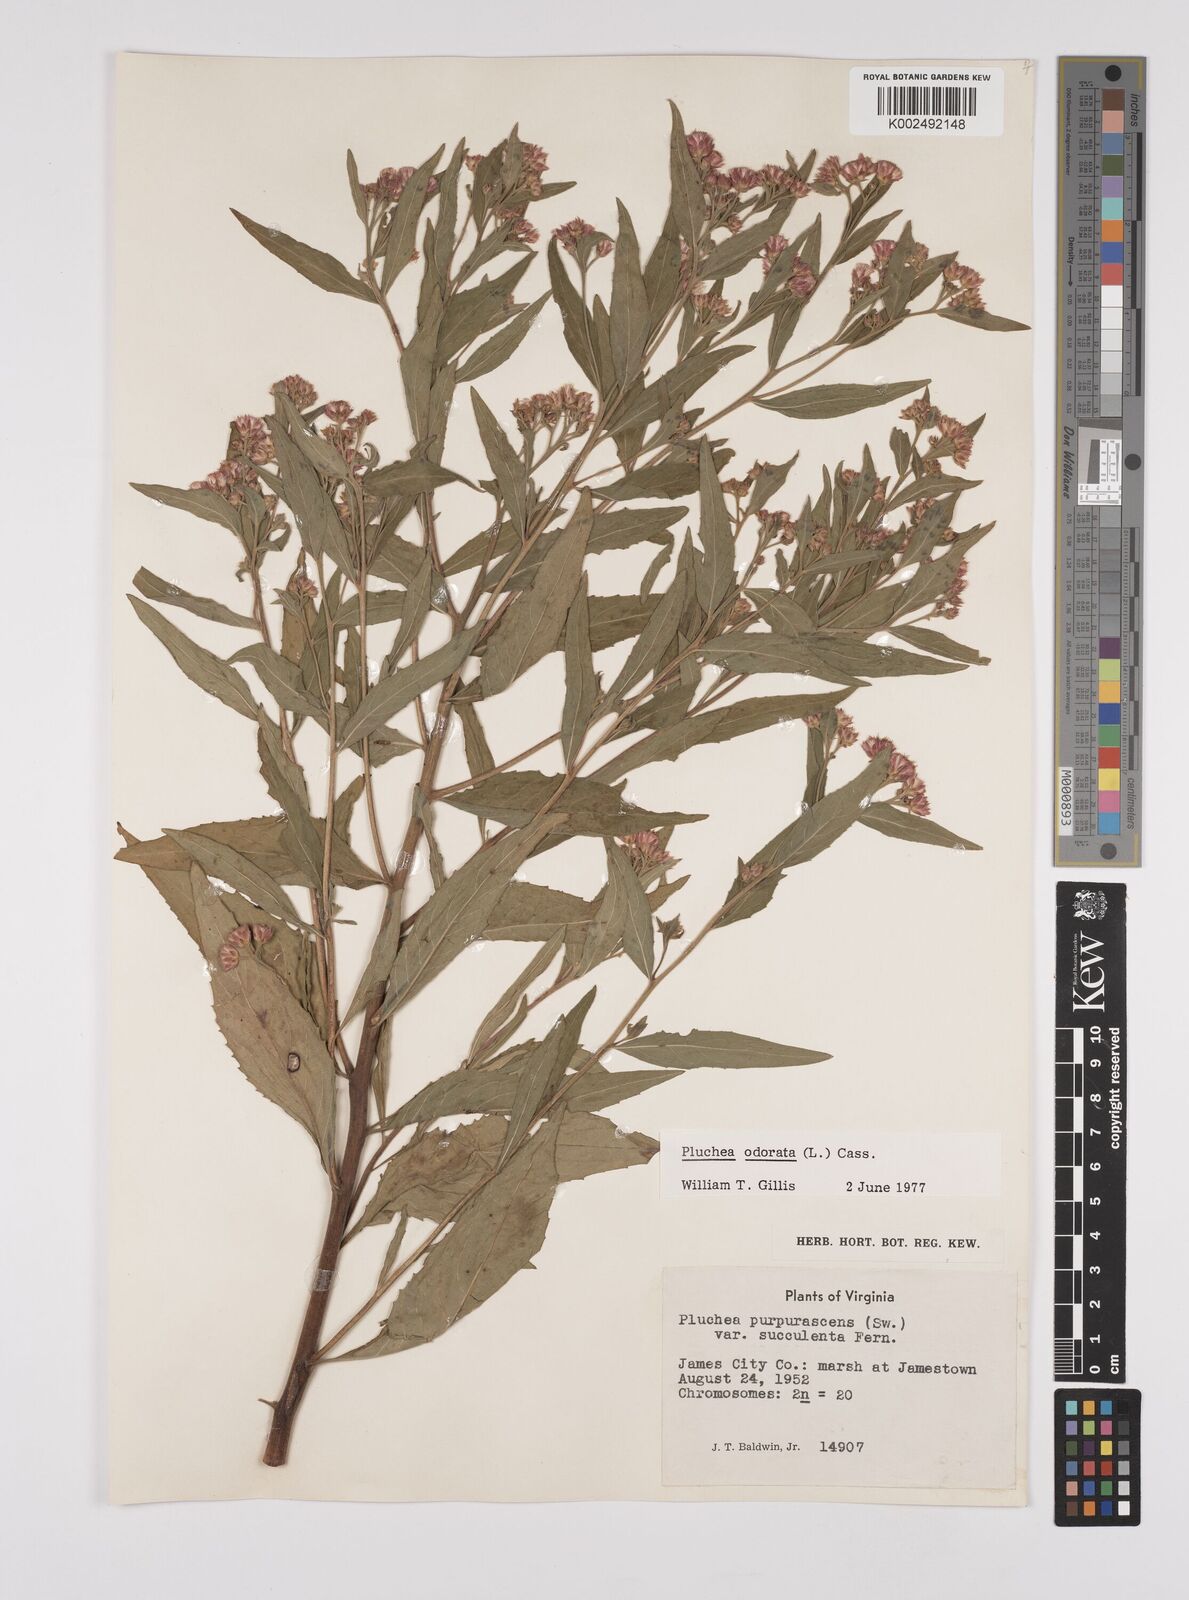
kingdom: Plantae
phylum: Tracheophyta
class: Magnoliopsida
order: Asterales
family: Asteraceae
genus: Pluchea
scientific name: Pluchea odorata
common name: Saltmarsh fleabane
